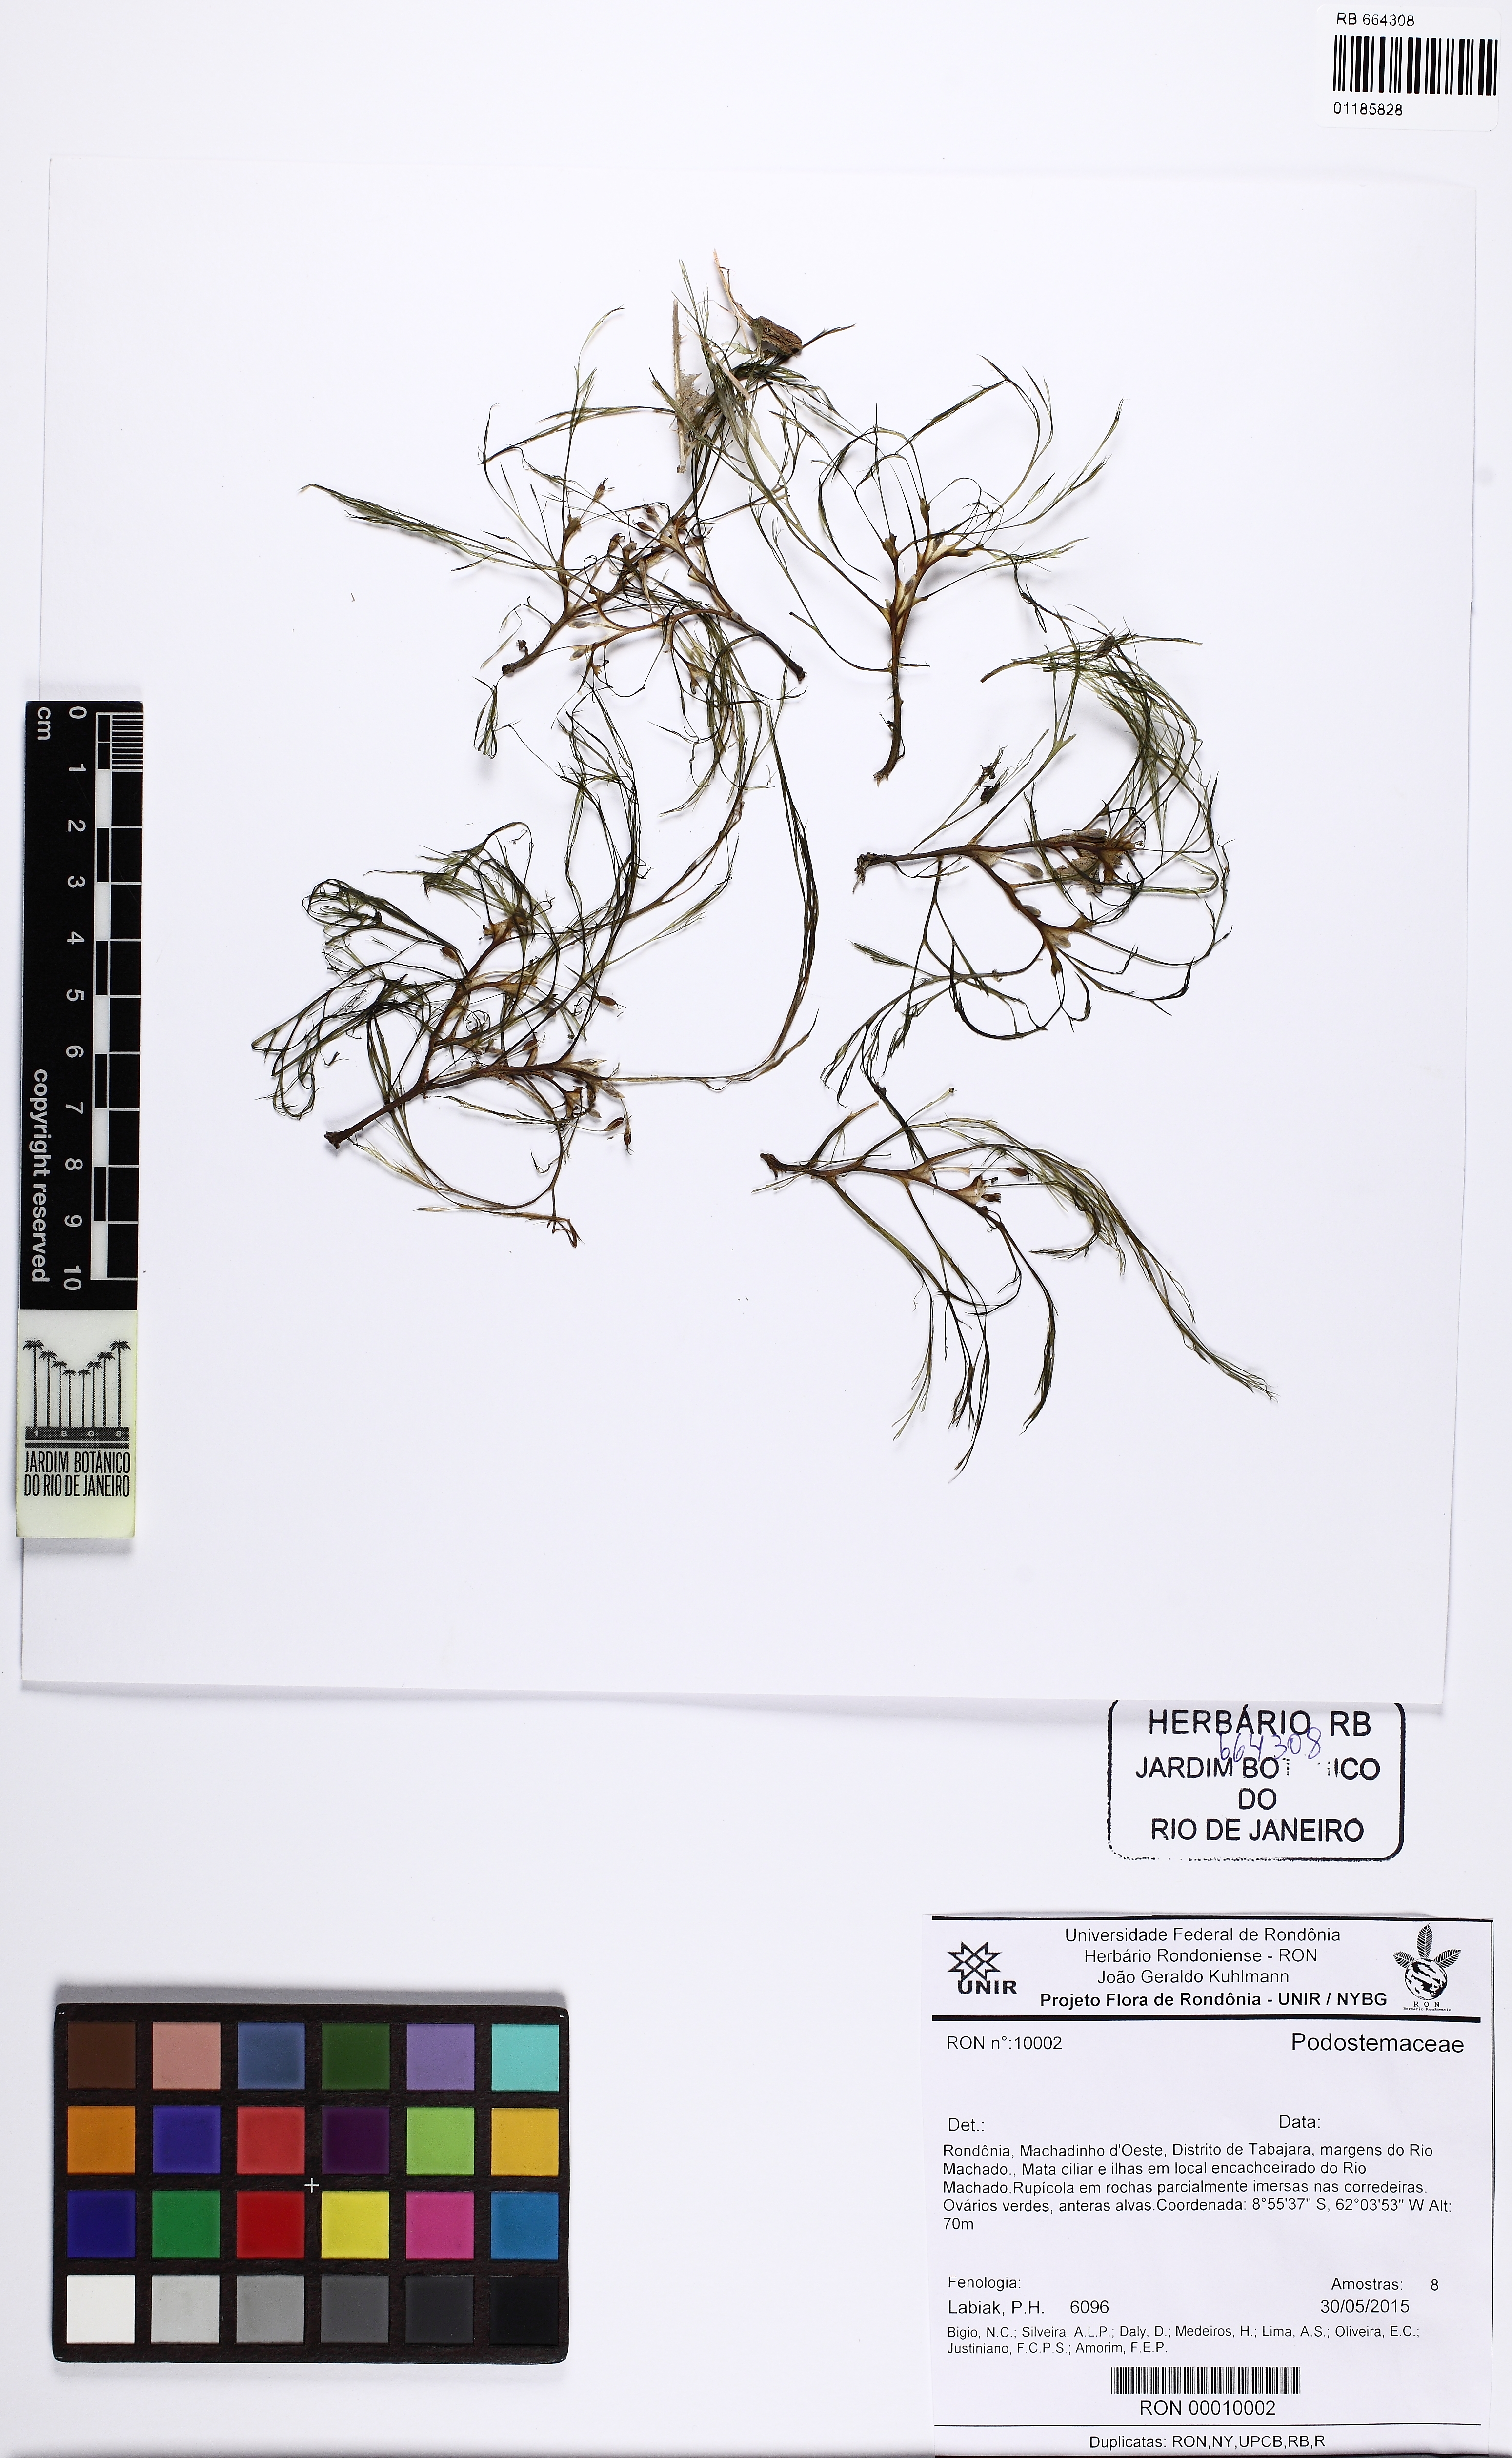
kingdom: Plantae
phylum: Tracheophyta
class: Magnoliopsida
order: Malpighiales
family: Podostemaceae
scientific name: Podostemaceae
